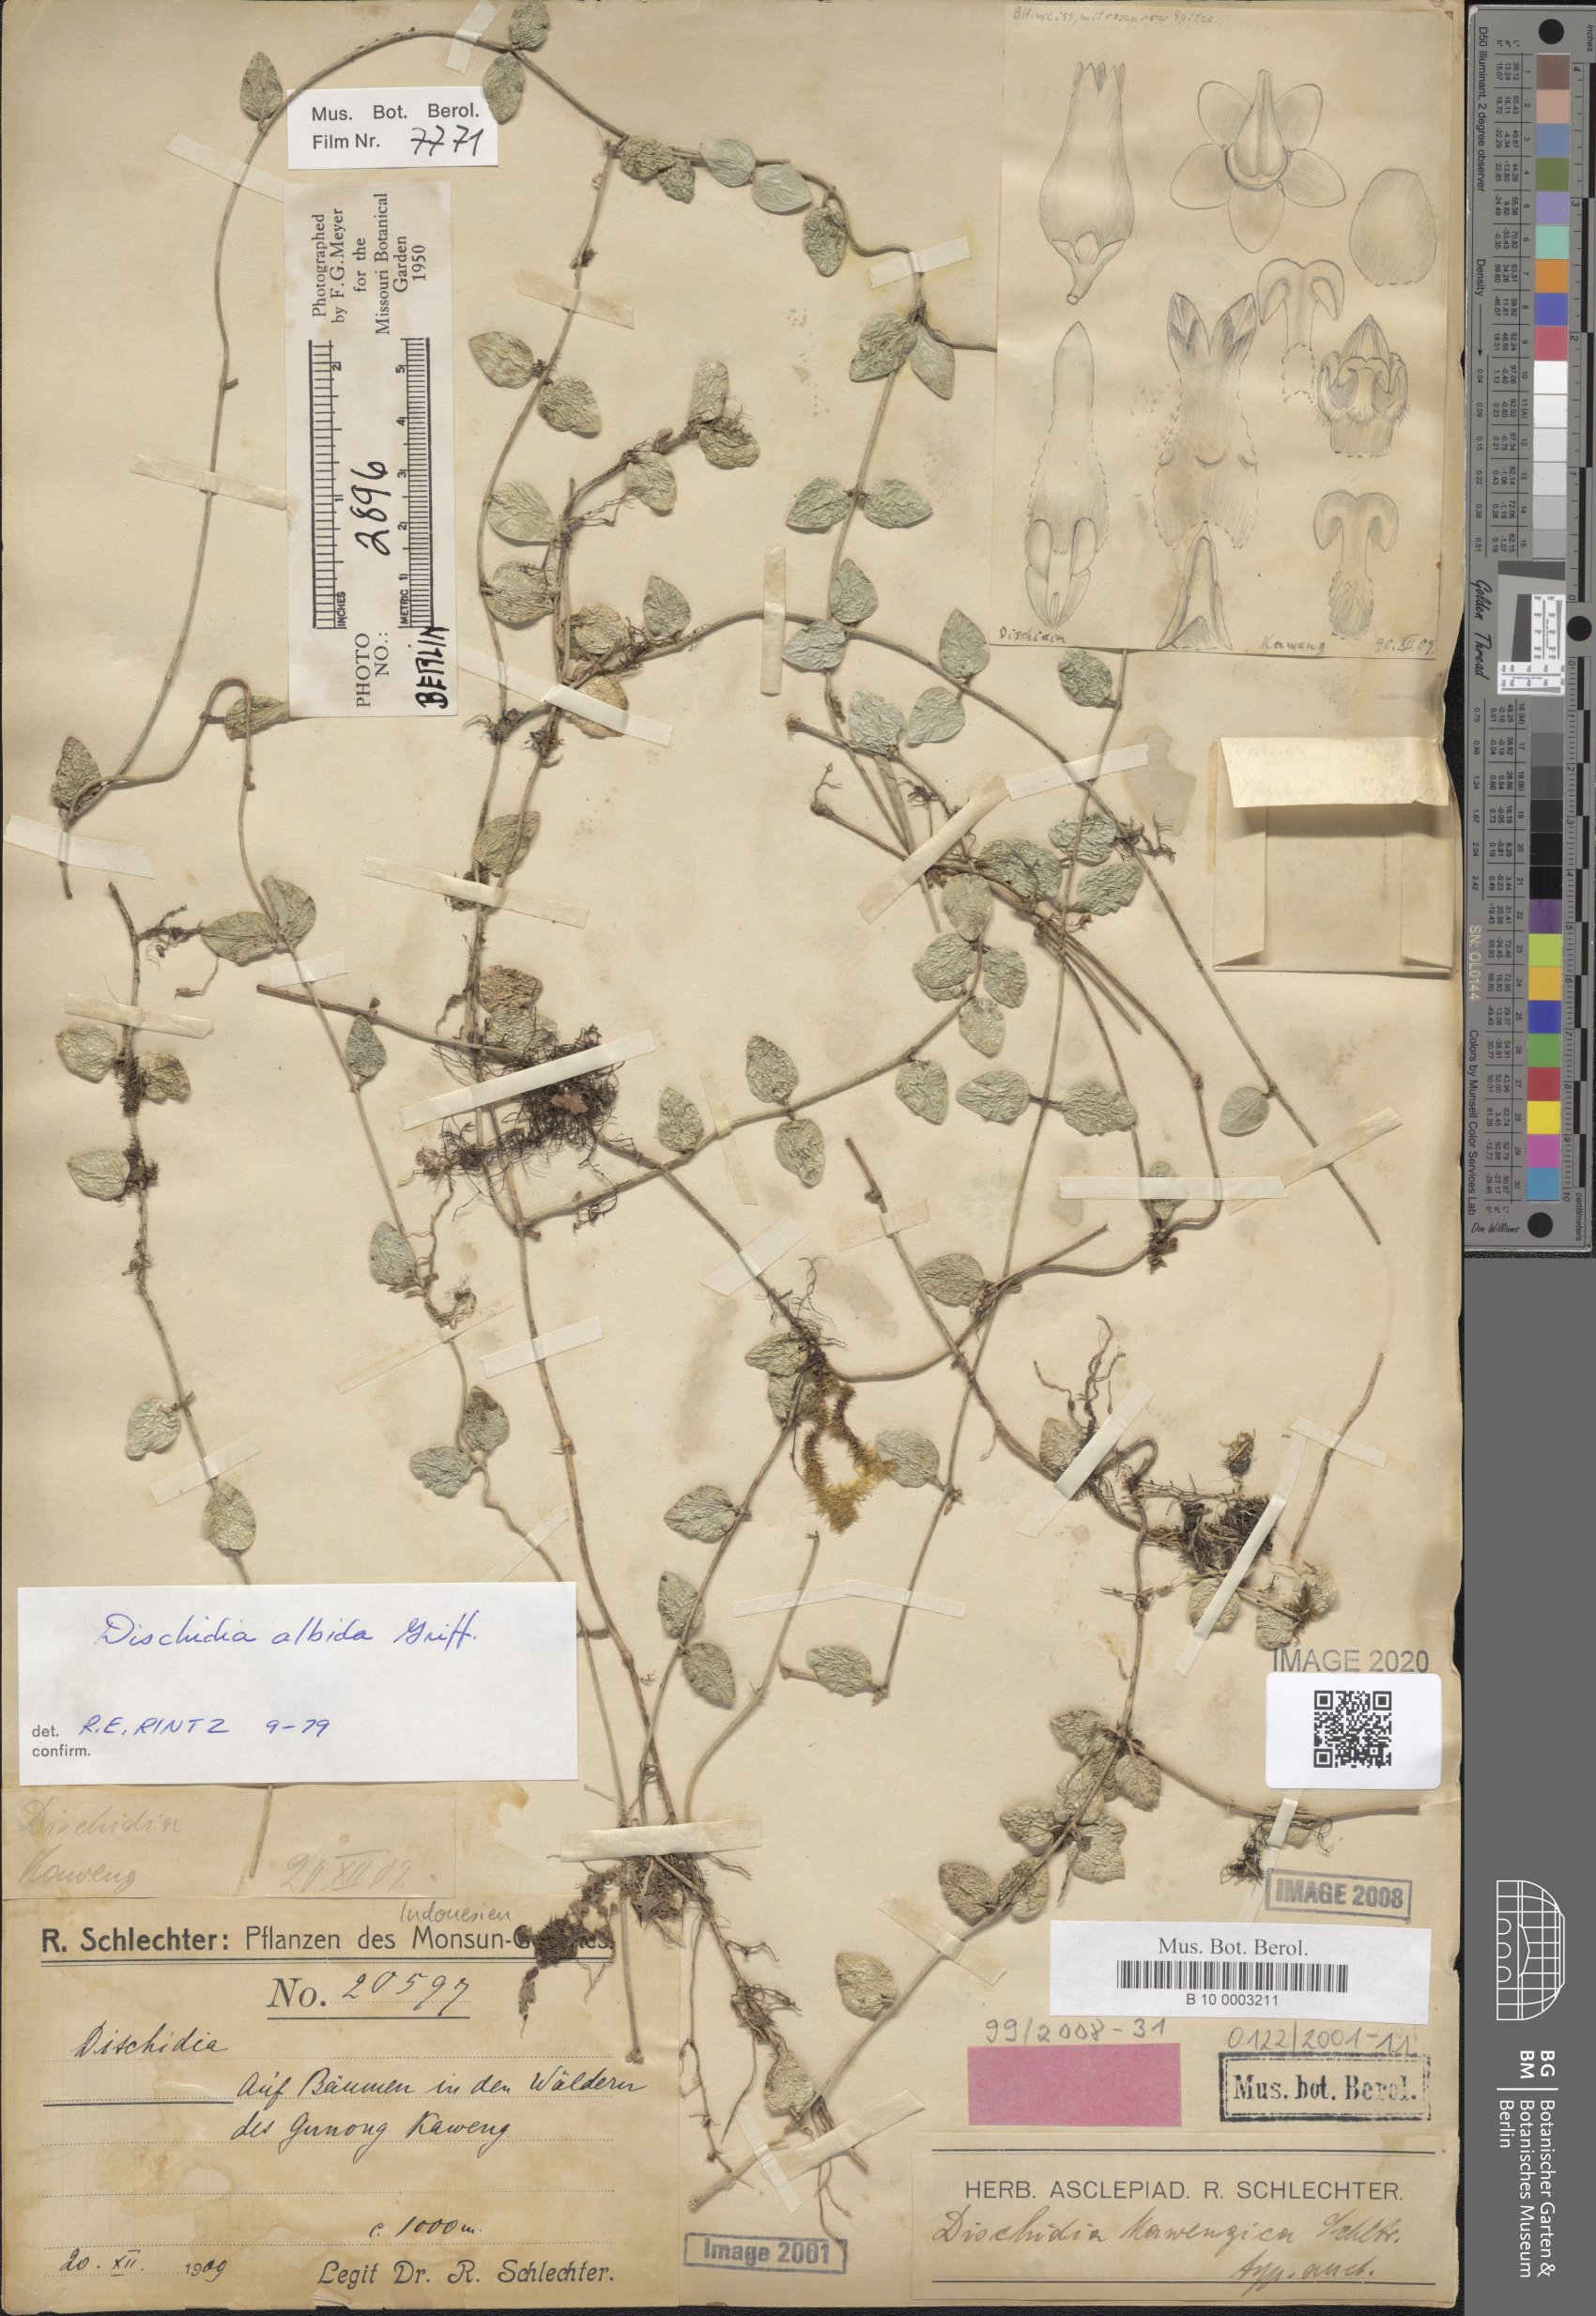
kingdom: Plantae
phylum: Tracheophyta
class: Magnoliopsida
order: Gentianales
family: Apocynaceae
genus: Dischidia
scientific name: Dischidia albida
